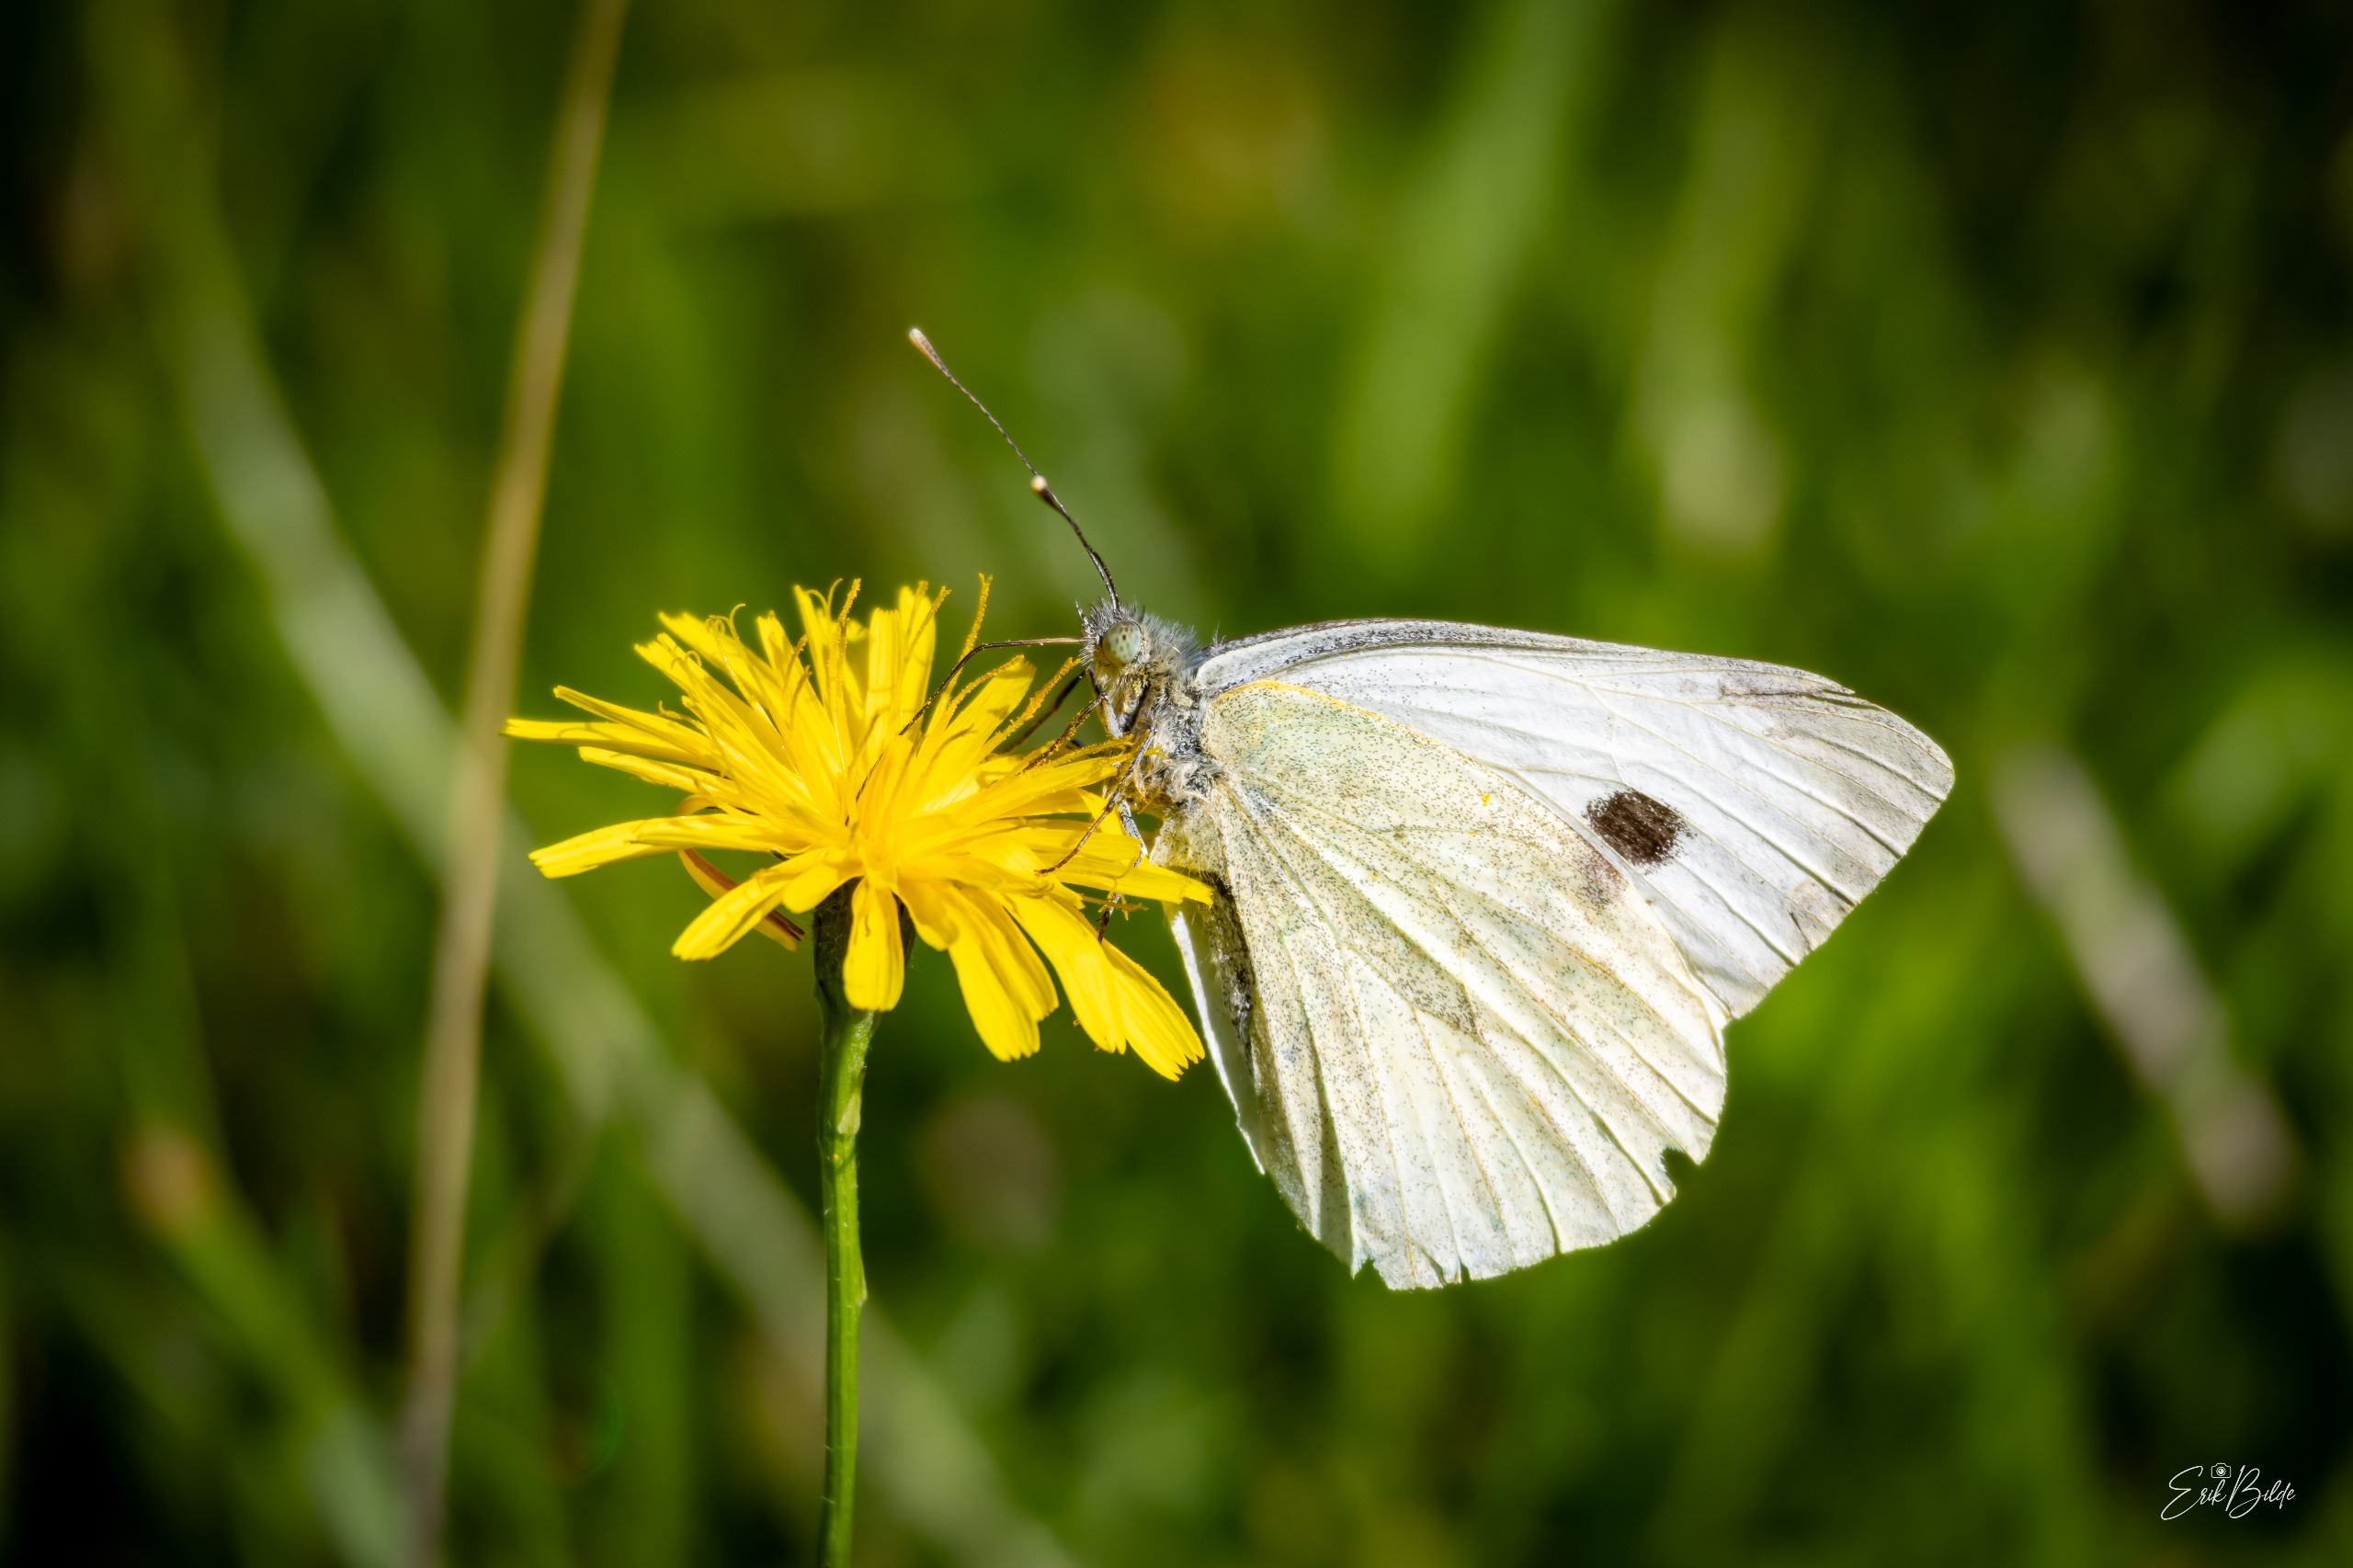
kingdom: Animalia
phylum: Arthropoda
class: Insecta
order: Lepidoptera
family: Pieridae
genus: Pieris
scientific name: Pieris brassicae
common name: Stor kålsommerfugl
